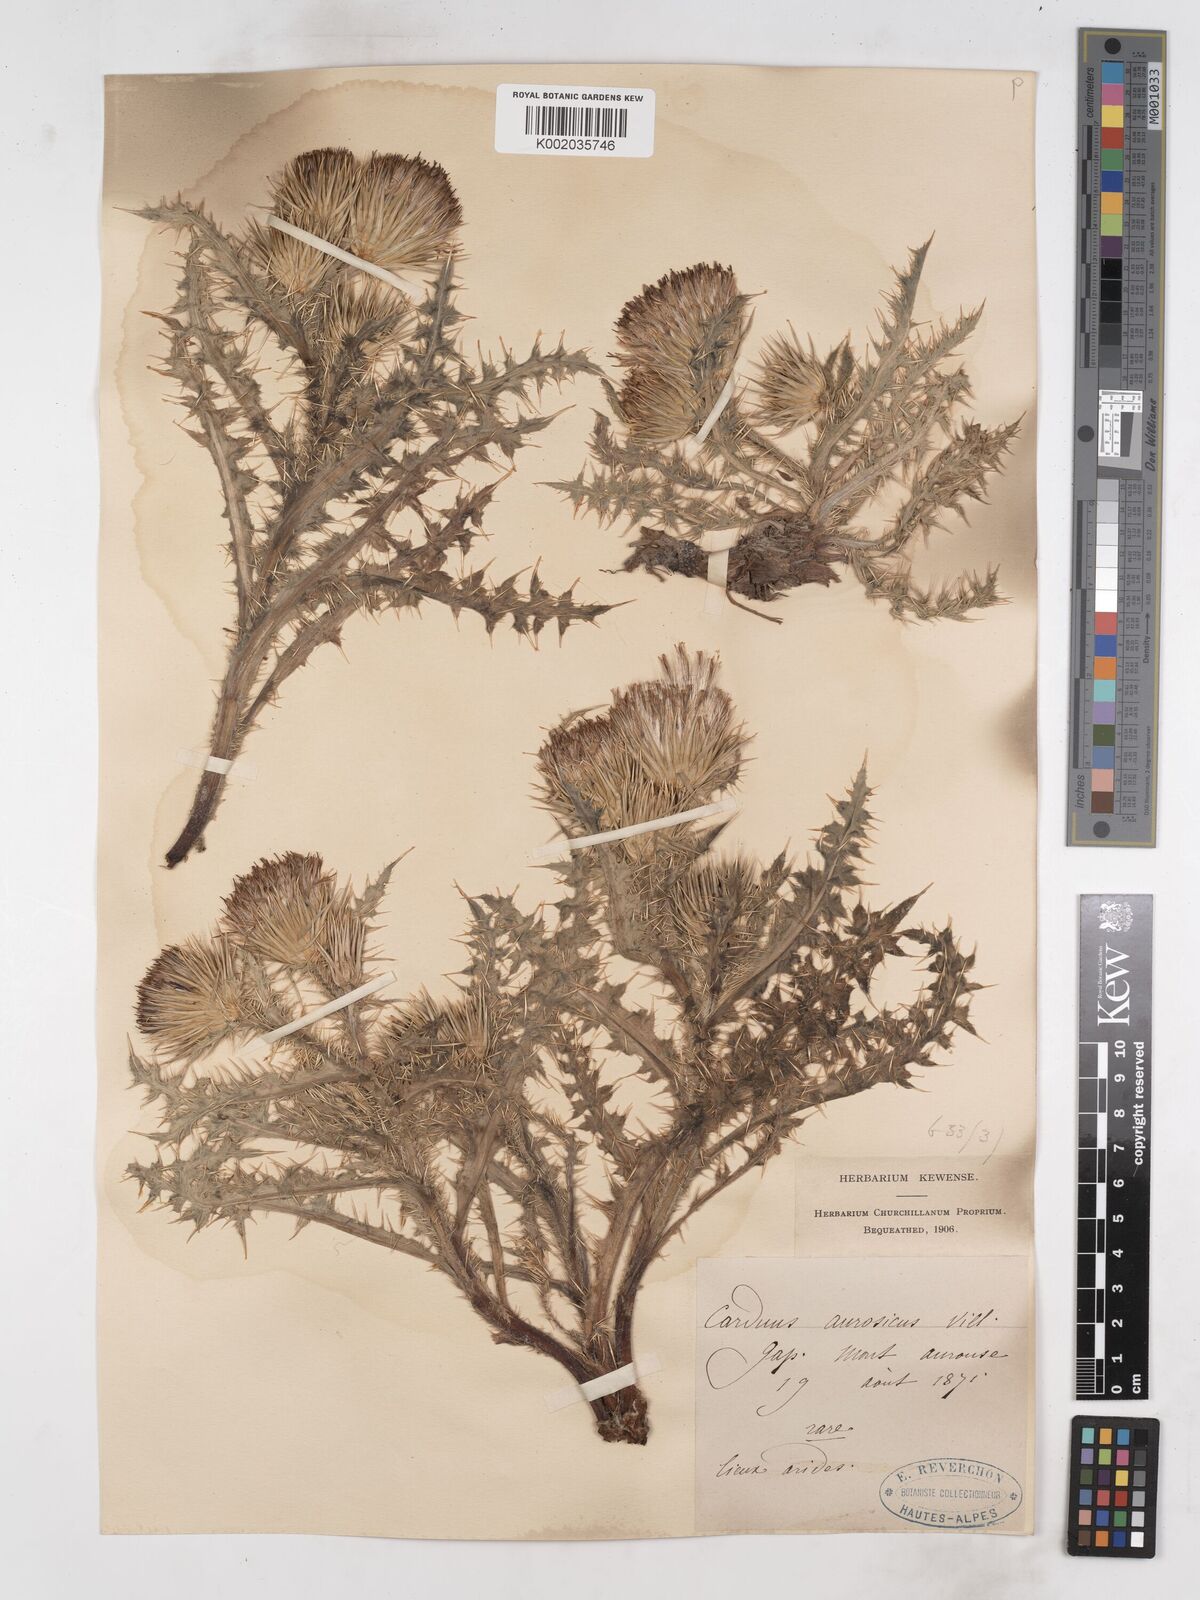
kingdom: Plantae
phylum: Tracheophyta
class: Magnoliopsida
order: Asterales
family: Asteraceae
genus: Carduus
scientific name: Carduus aurosicus
